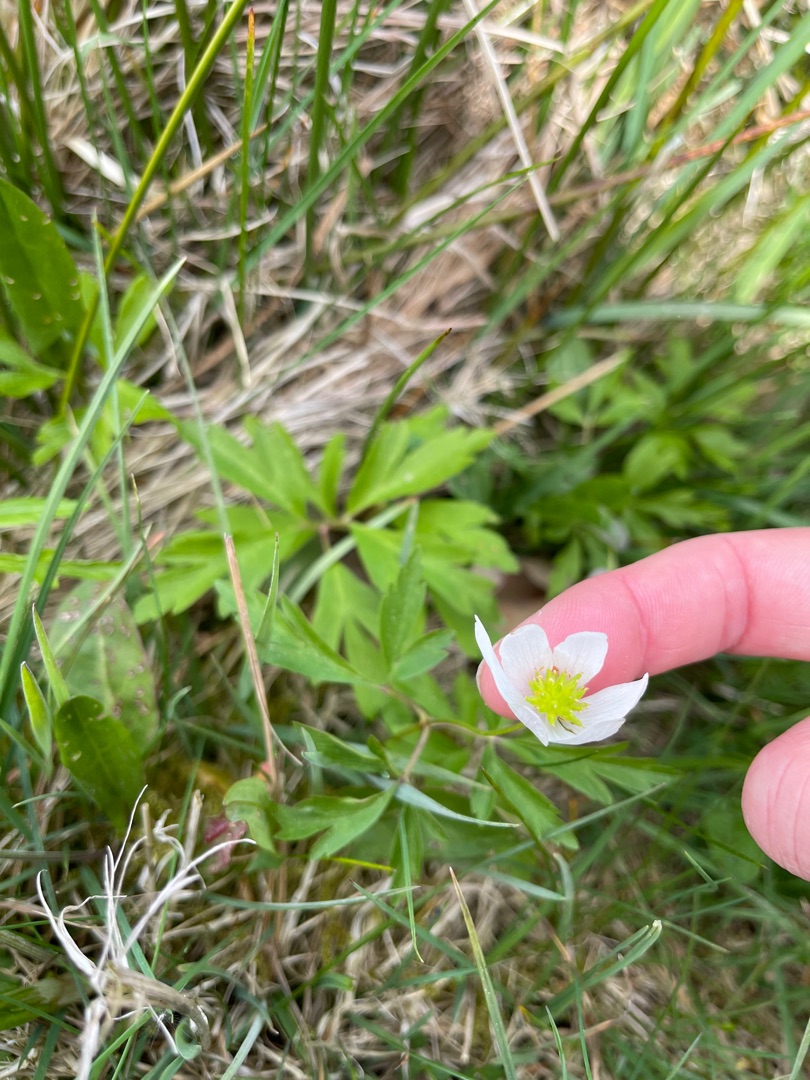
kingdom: Plantae
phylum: Tracheophyta
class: Magnoliopsida
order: Ranunculales
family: Ranunculaceae
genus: Anemone
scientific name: Anemone nemorosa
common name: Hvid anemone
